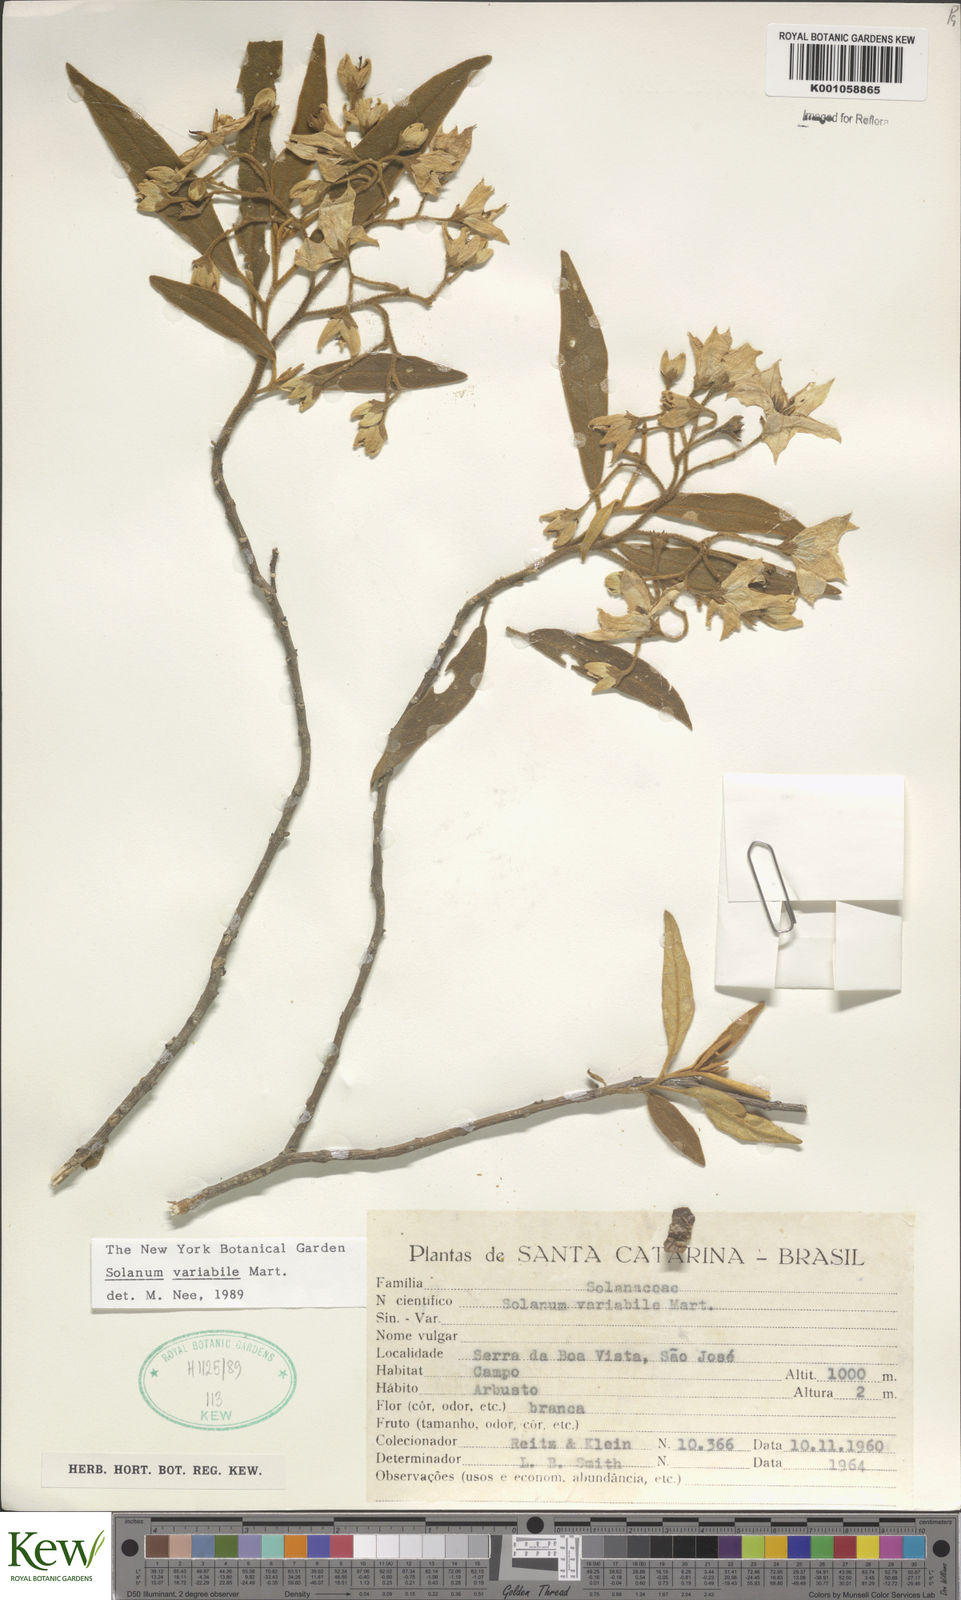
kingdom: Plantae
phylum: Tracheophyta
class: Magnoliopsida
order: Solanales
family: Solanaceae
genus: Solanum
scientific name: Solanum variabile
